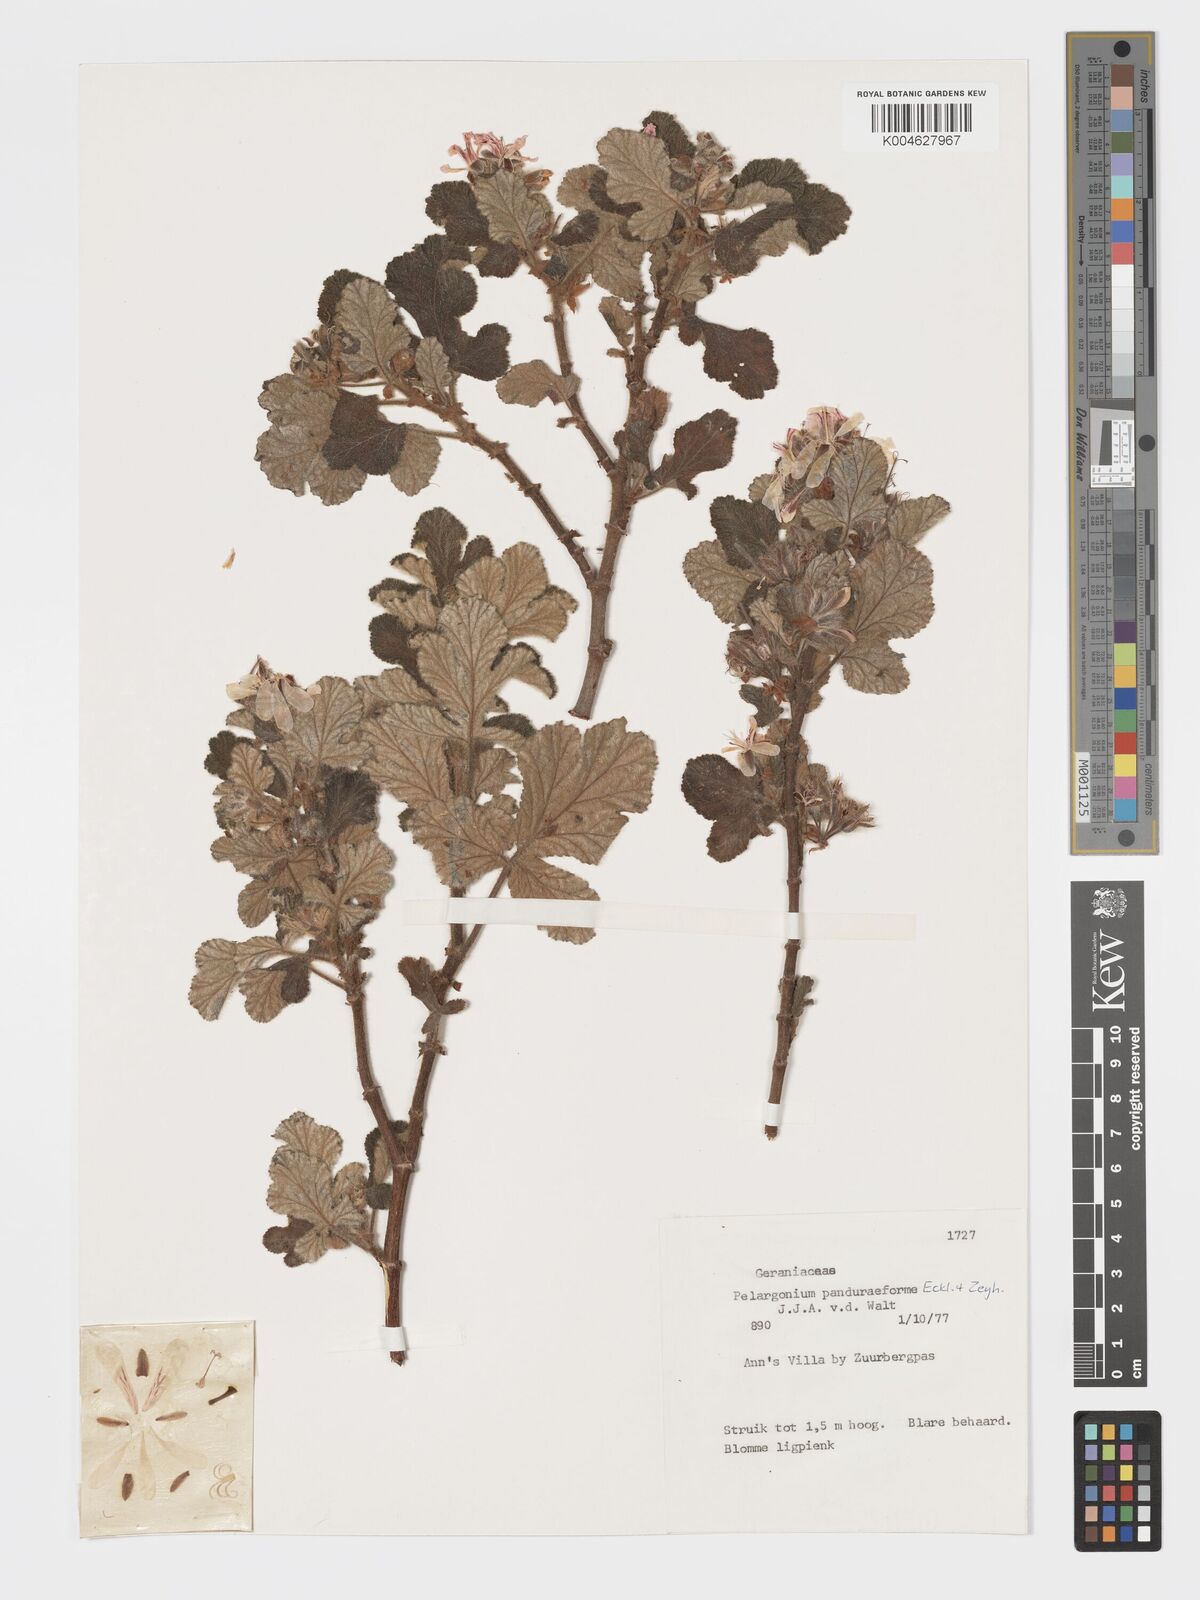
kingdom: Plantae
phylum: Tracheophyta
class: Magnoliopsida
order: Geraniales
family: Geraniaceae
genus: Pelargonium
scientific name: Pelargonium panduriforme
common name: Oakleaf garden geranium
